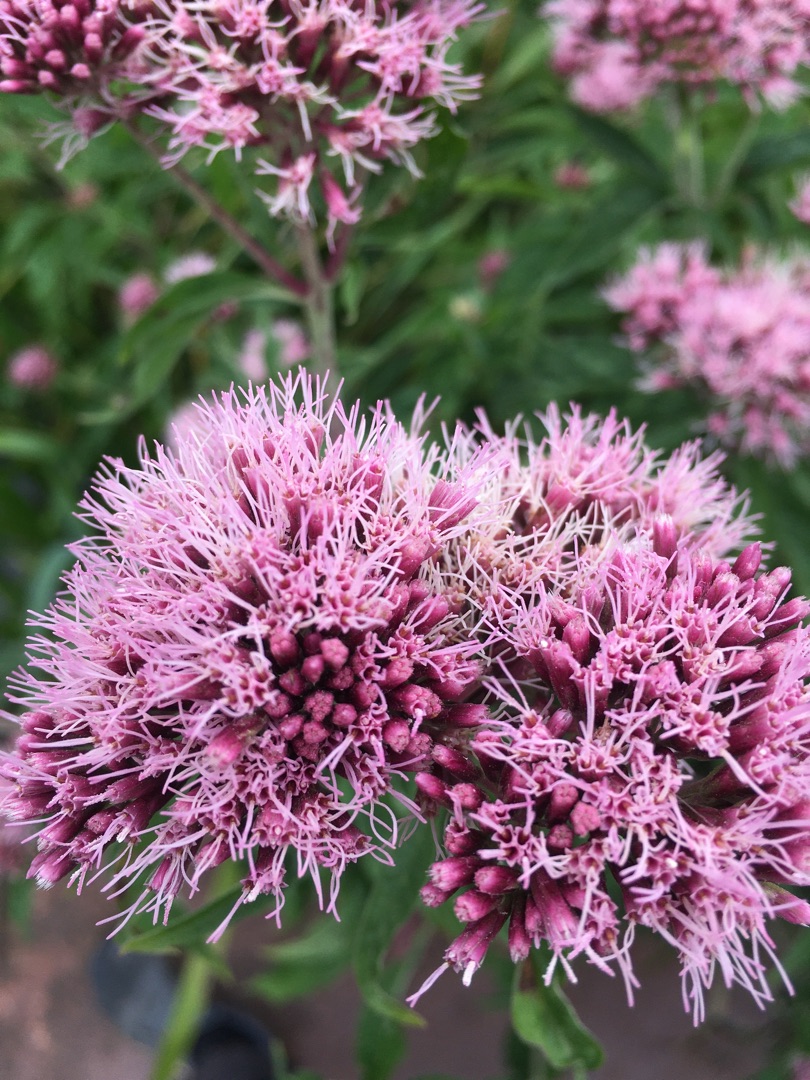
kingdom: Plantae
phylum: Tracheophyta
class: Magnoliopsida
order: Asterales
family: Asteraceae
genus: Eupatorium
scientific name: Eupatorium cannabinum
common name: Hjortetrøst
